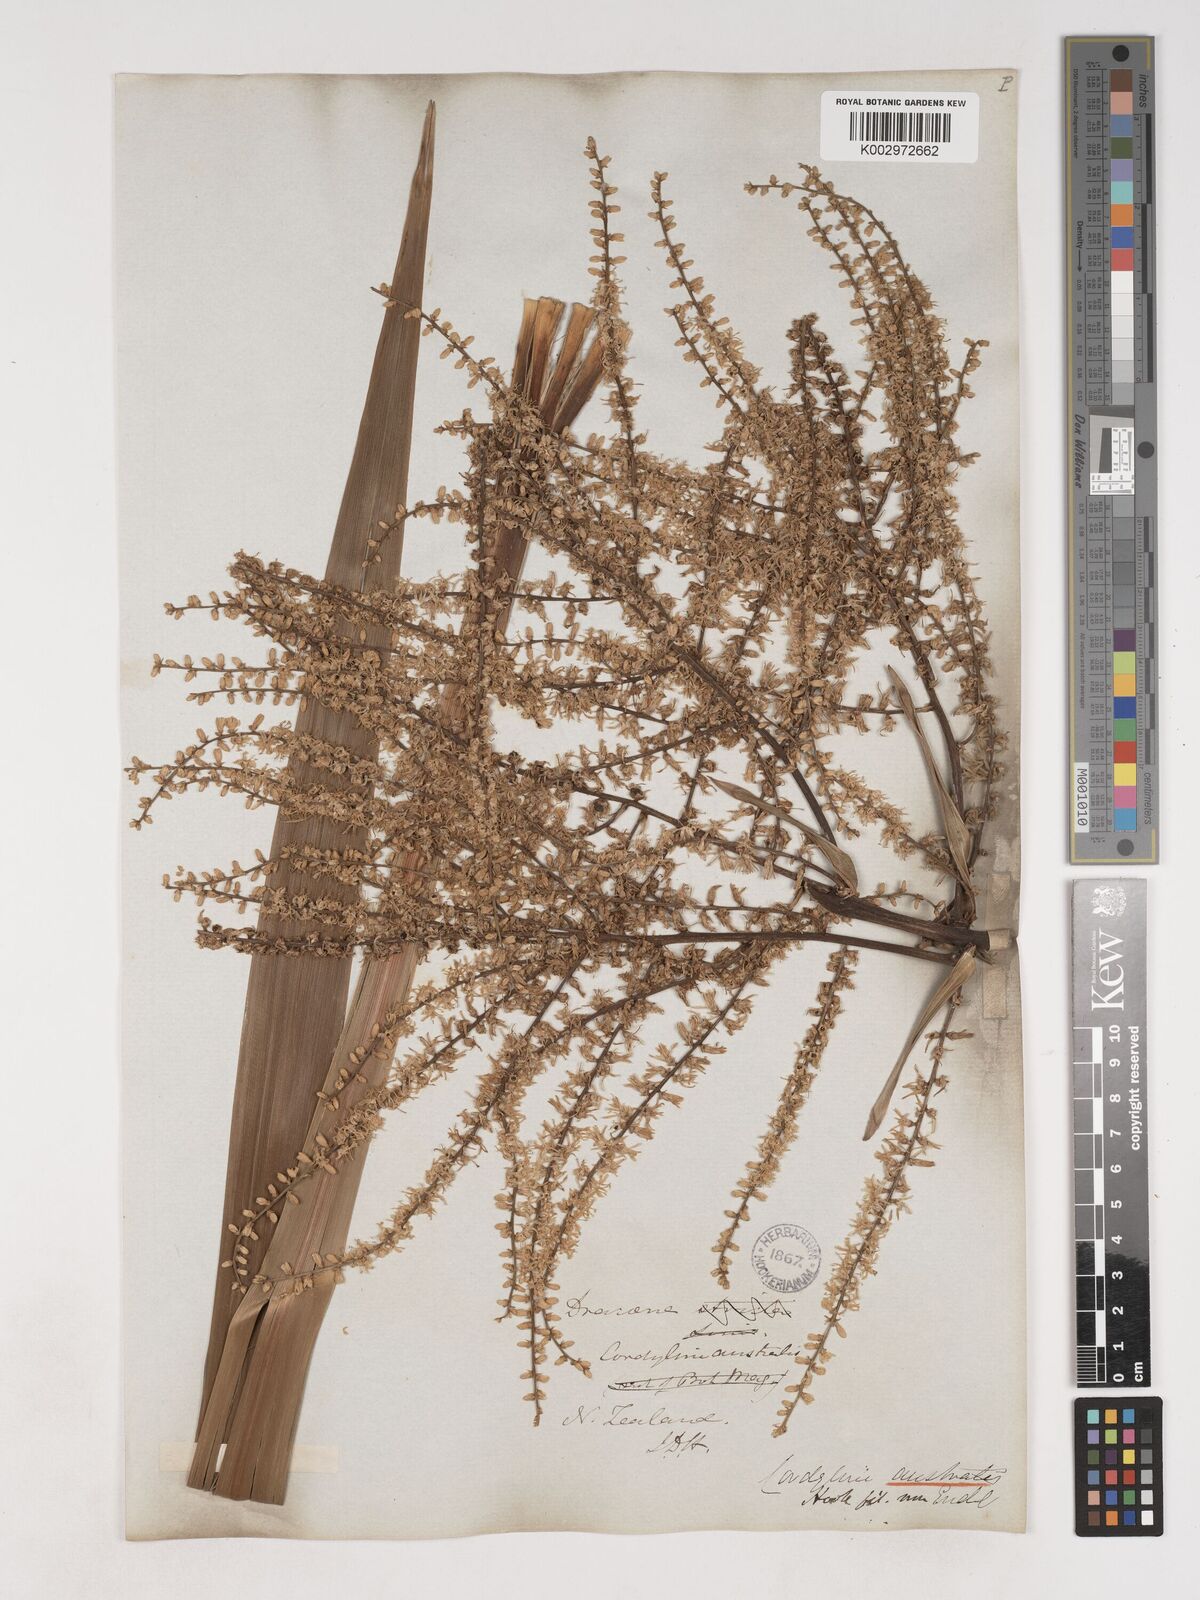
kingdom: Plantae
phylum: Tracheophyta
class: Liliopsida
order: Asparagales
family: Asparagaceae
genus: Cordyline
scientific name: Cordyline australis
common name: Cabbage-palm
